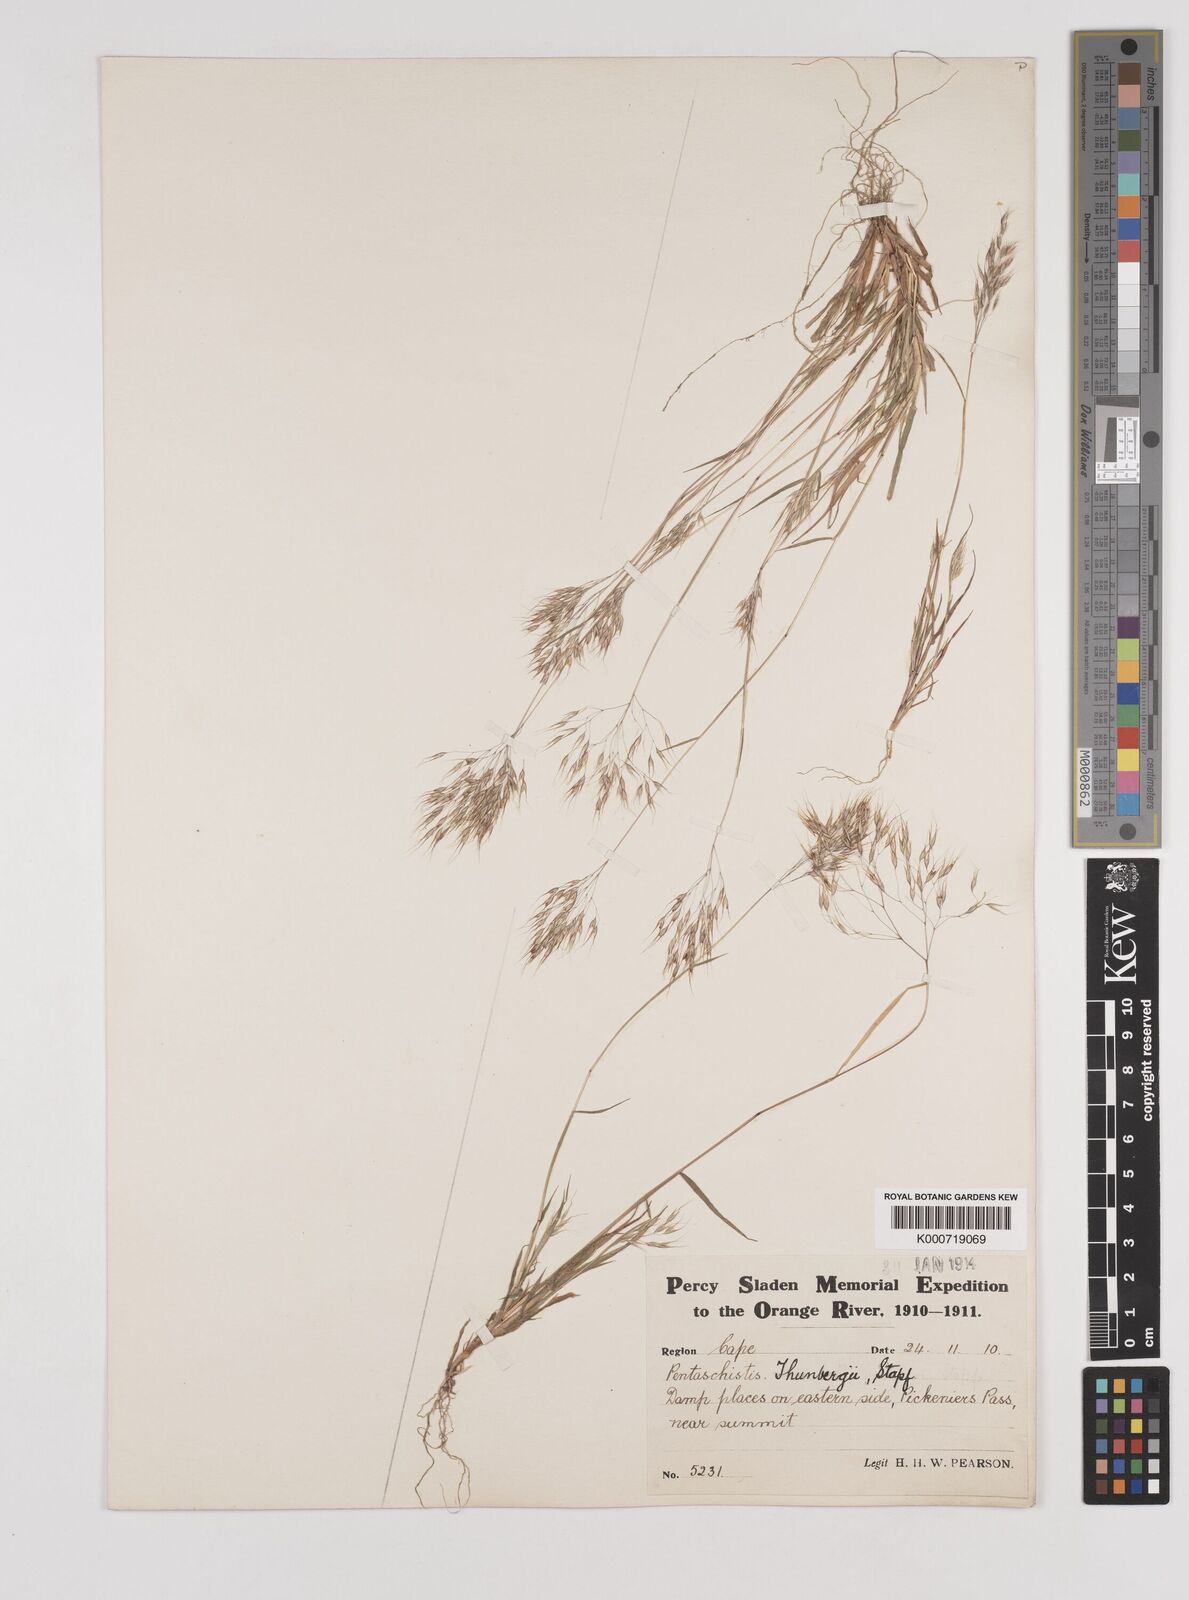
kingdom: Plantae
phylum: Tracheophyta
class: Liliopsida
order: Poales
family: Poaceae
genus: Pentameris
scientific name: Pentameris patula
